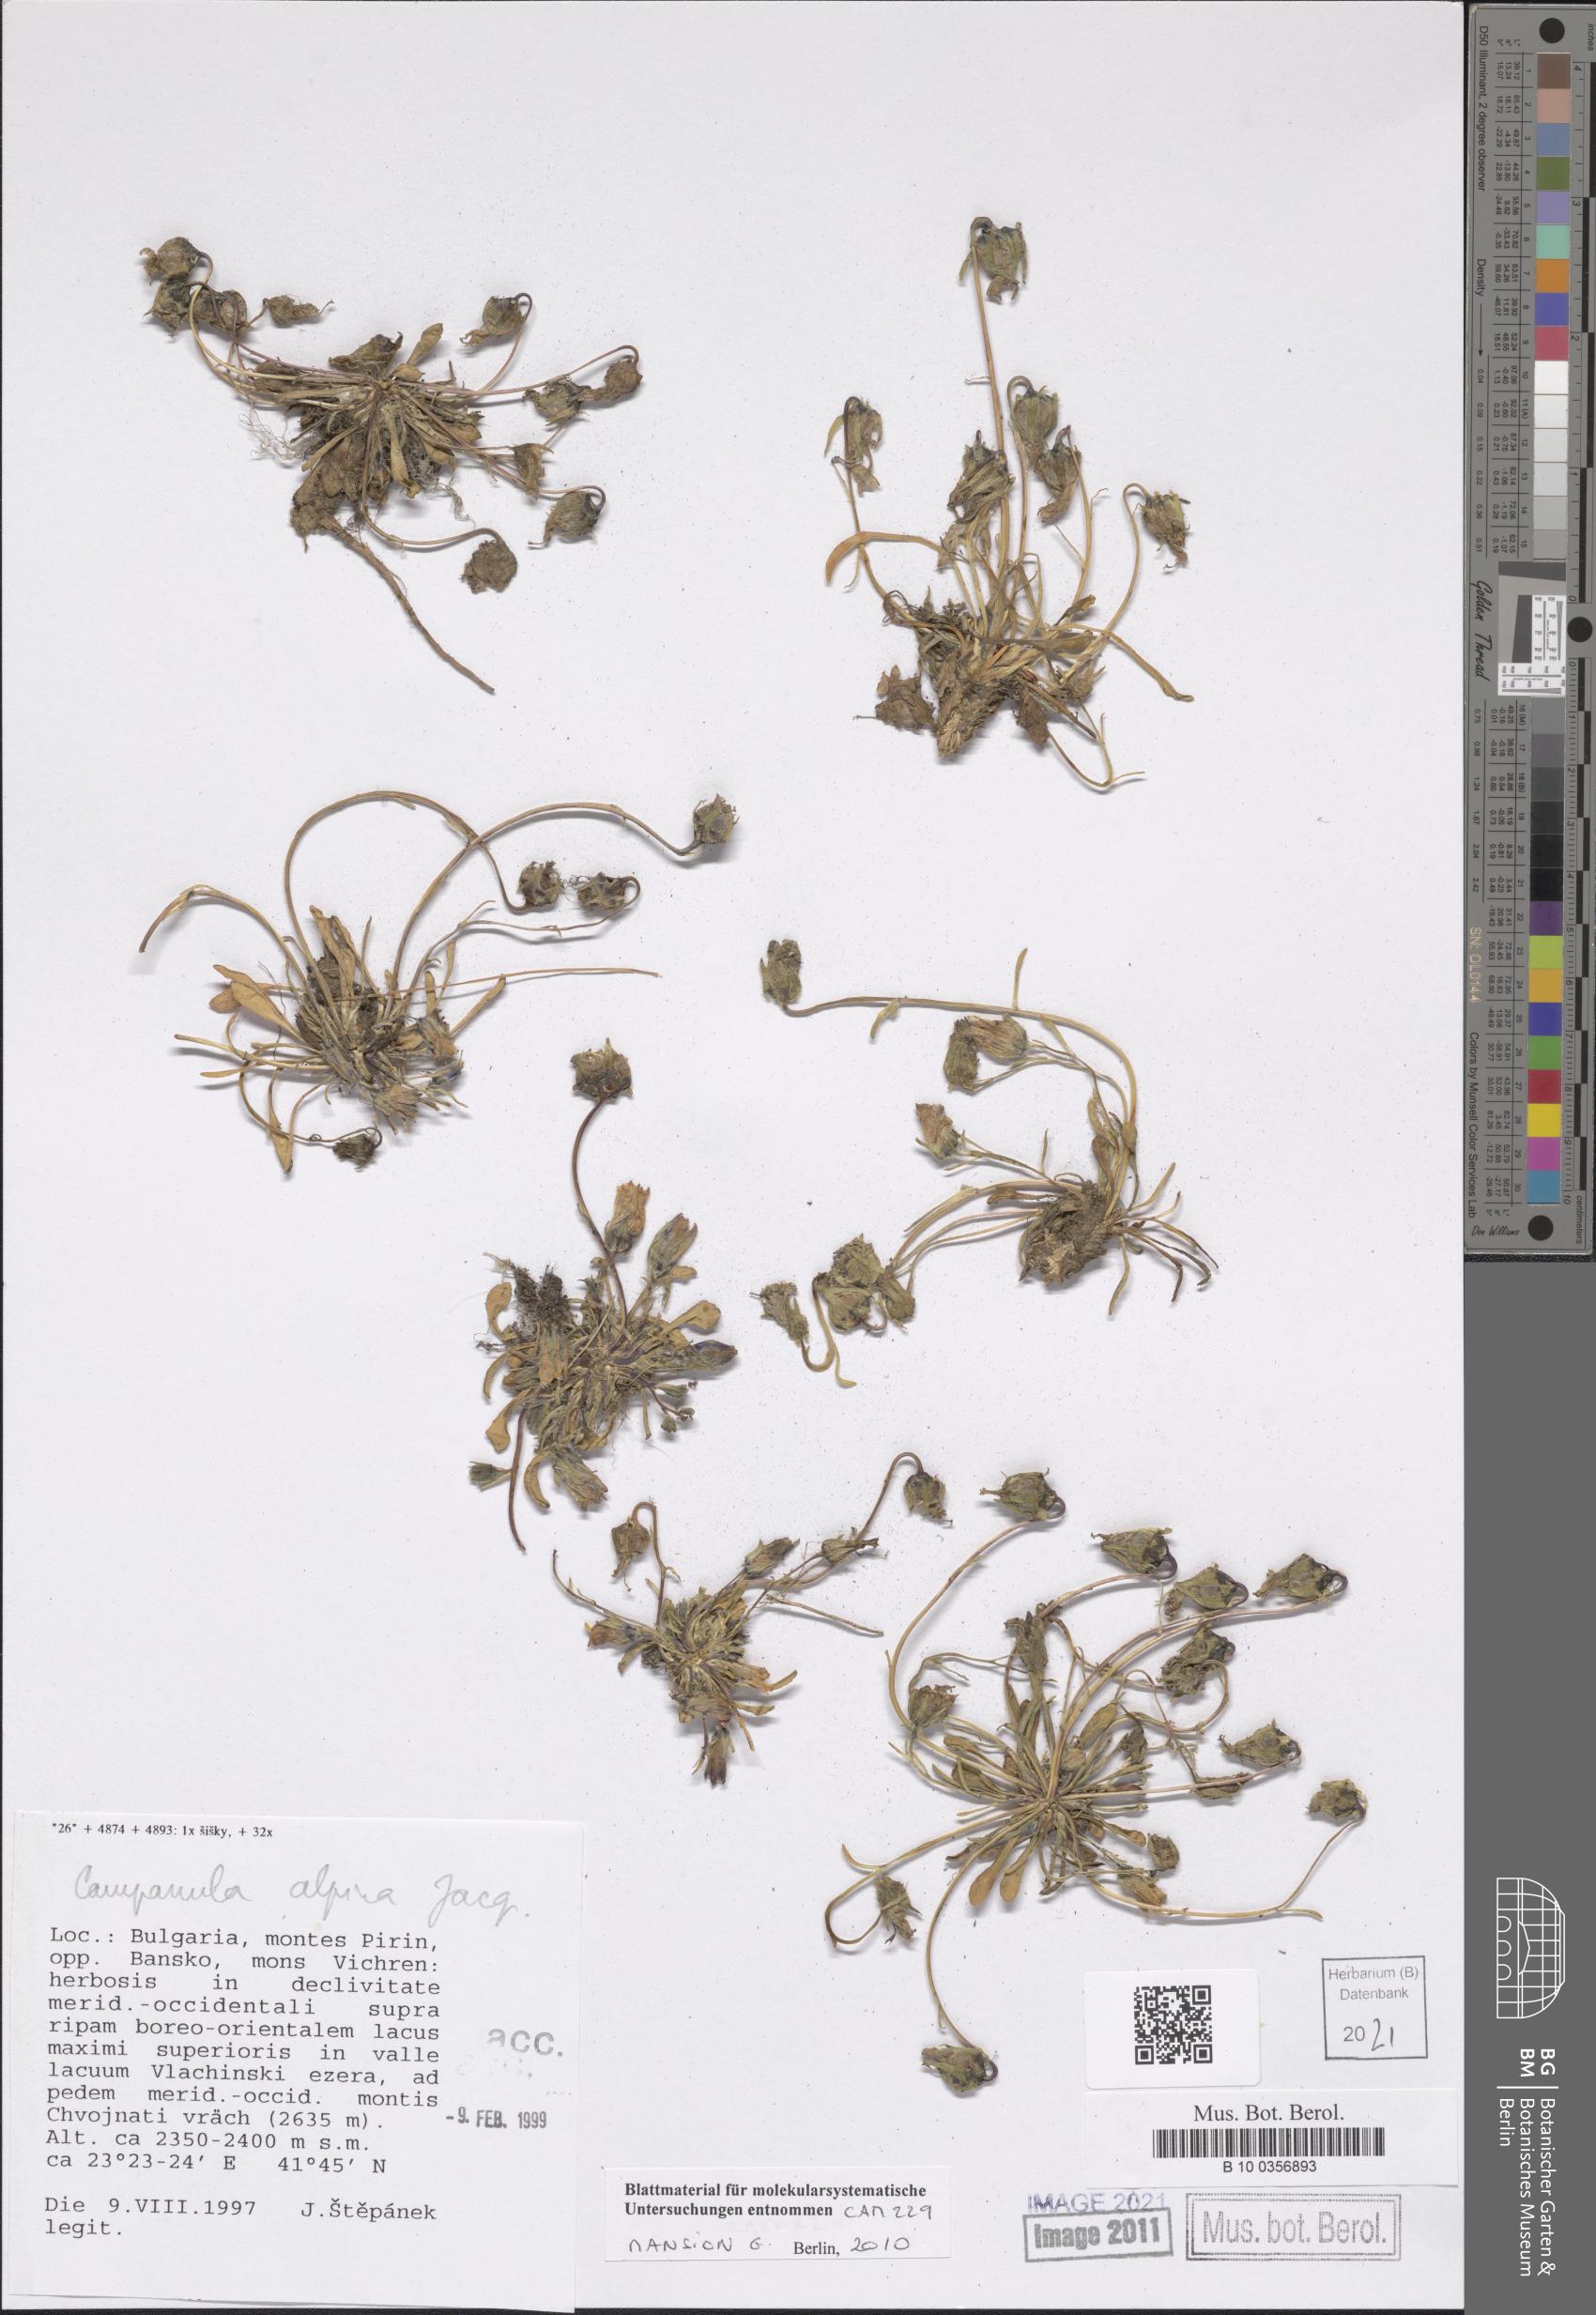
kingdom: Plantae
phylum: Tracheophyta
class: Magnoliopsida
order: Asterales
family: Campanulaceae
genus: Campanula
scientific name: Campanula alpina
